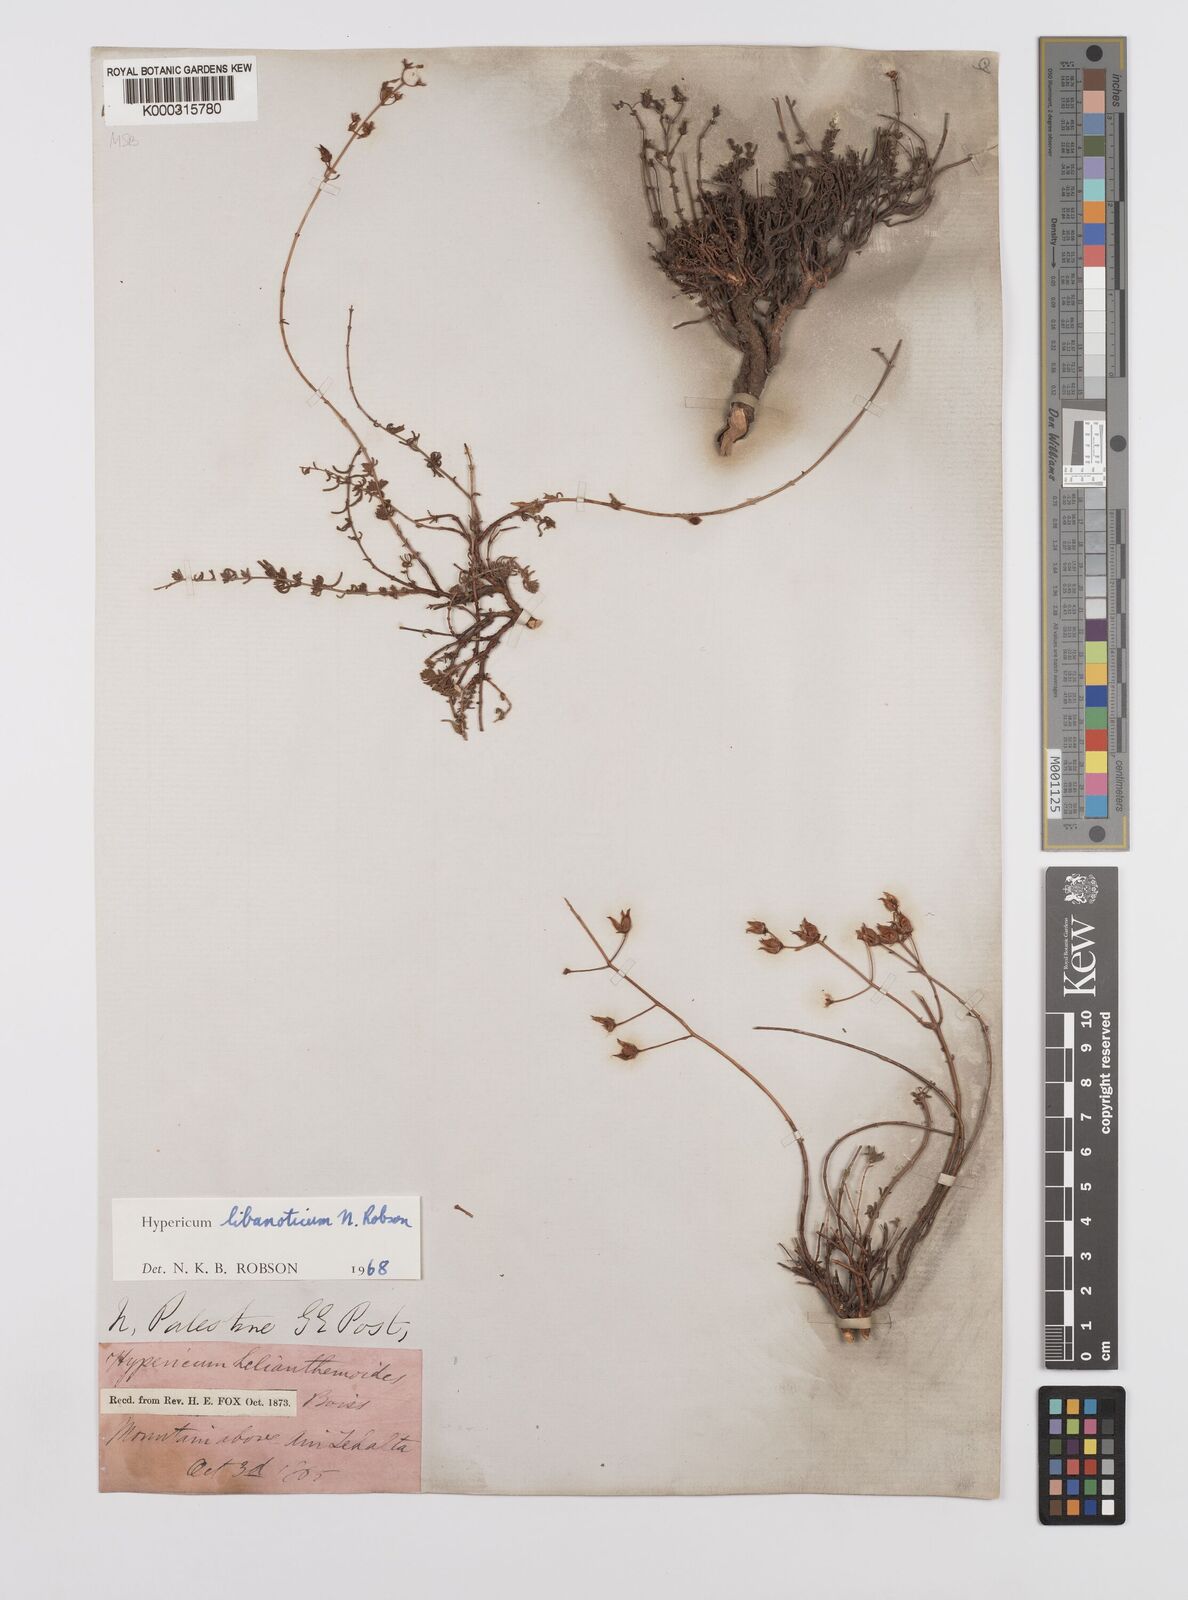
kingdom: Plantae
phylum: Tracheophyta
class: Magnoliopsida
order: Malpighiales
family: Hypericaceae
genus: Hypericum
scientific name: Hypericum libanoticum
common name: Lebanon saint john’s wort
